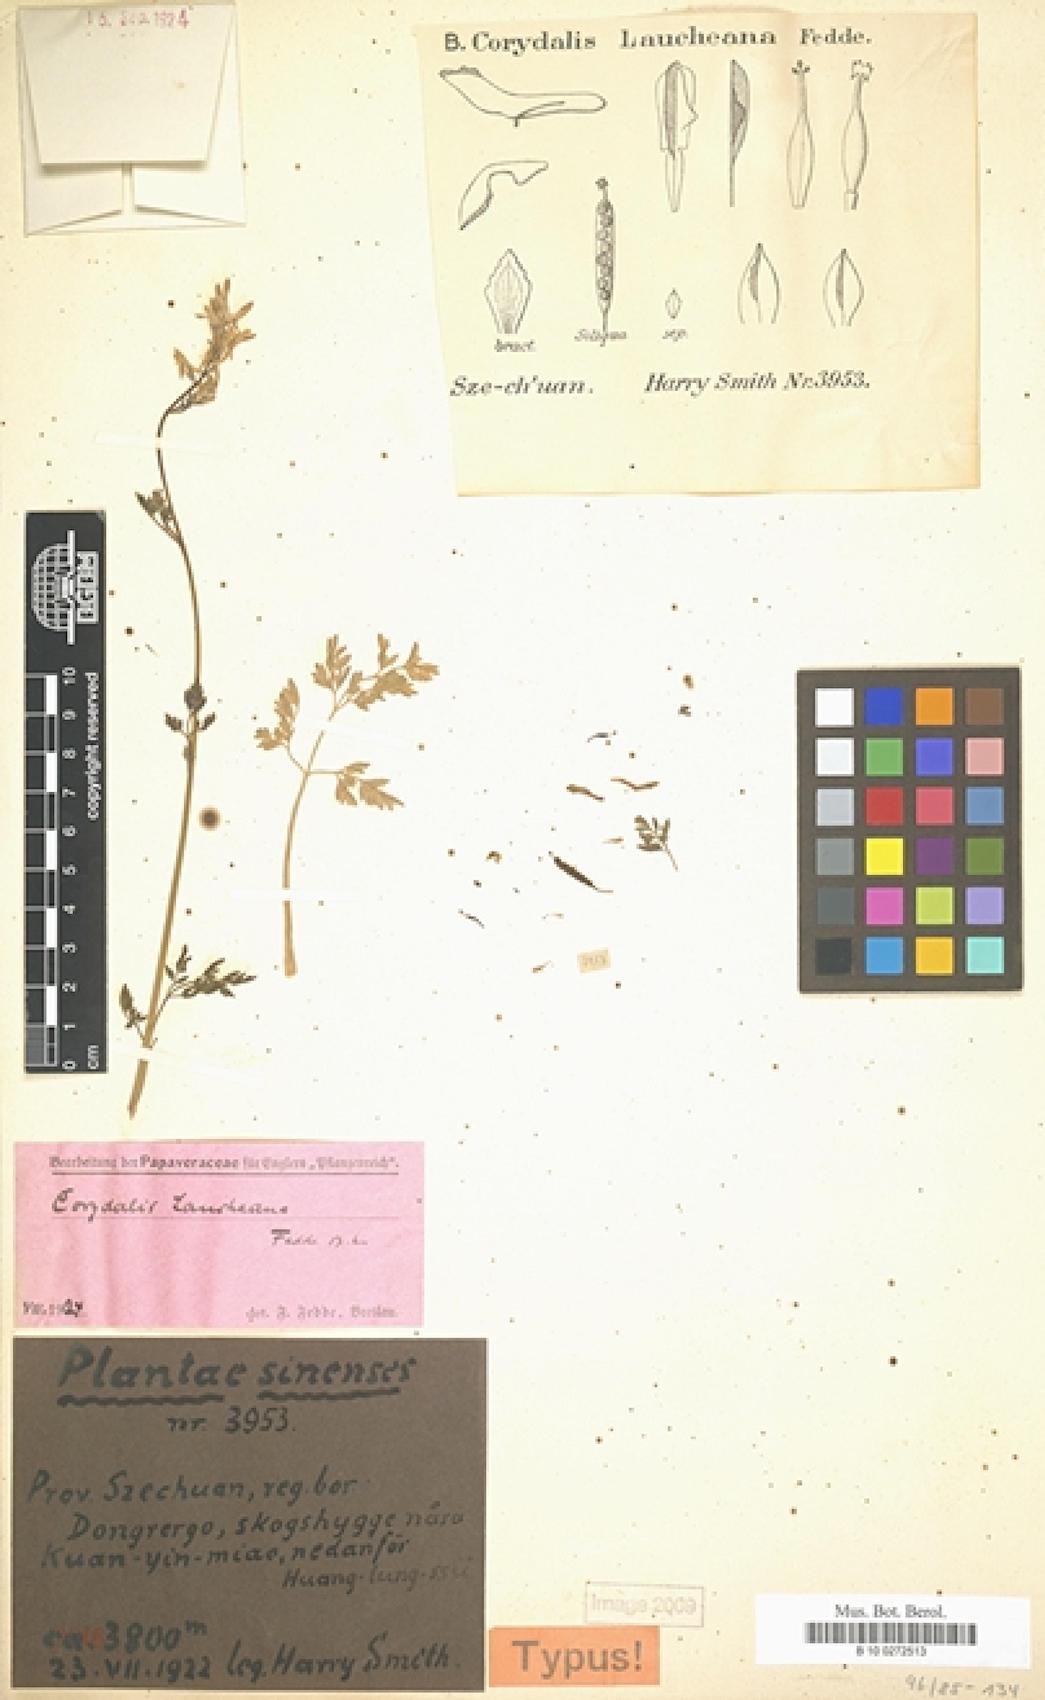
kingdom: Plantae
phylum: Tracheophyta
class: Magnoliopsida
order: Ranunculales
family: Papaveraceae
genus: Corydalis
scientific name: Corydalis laucheana
